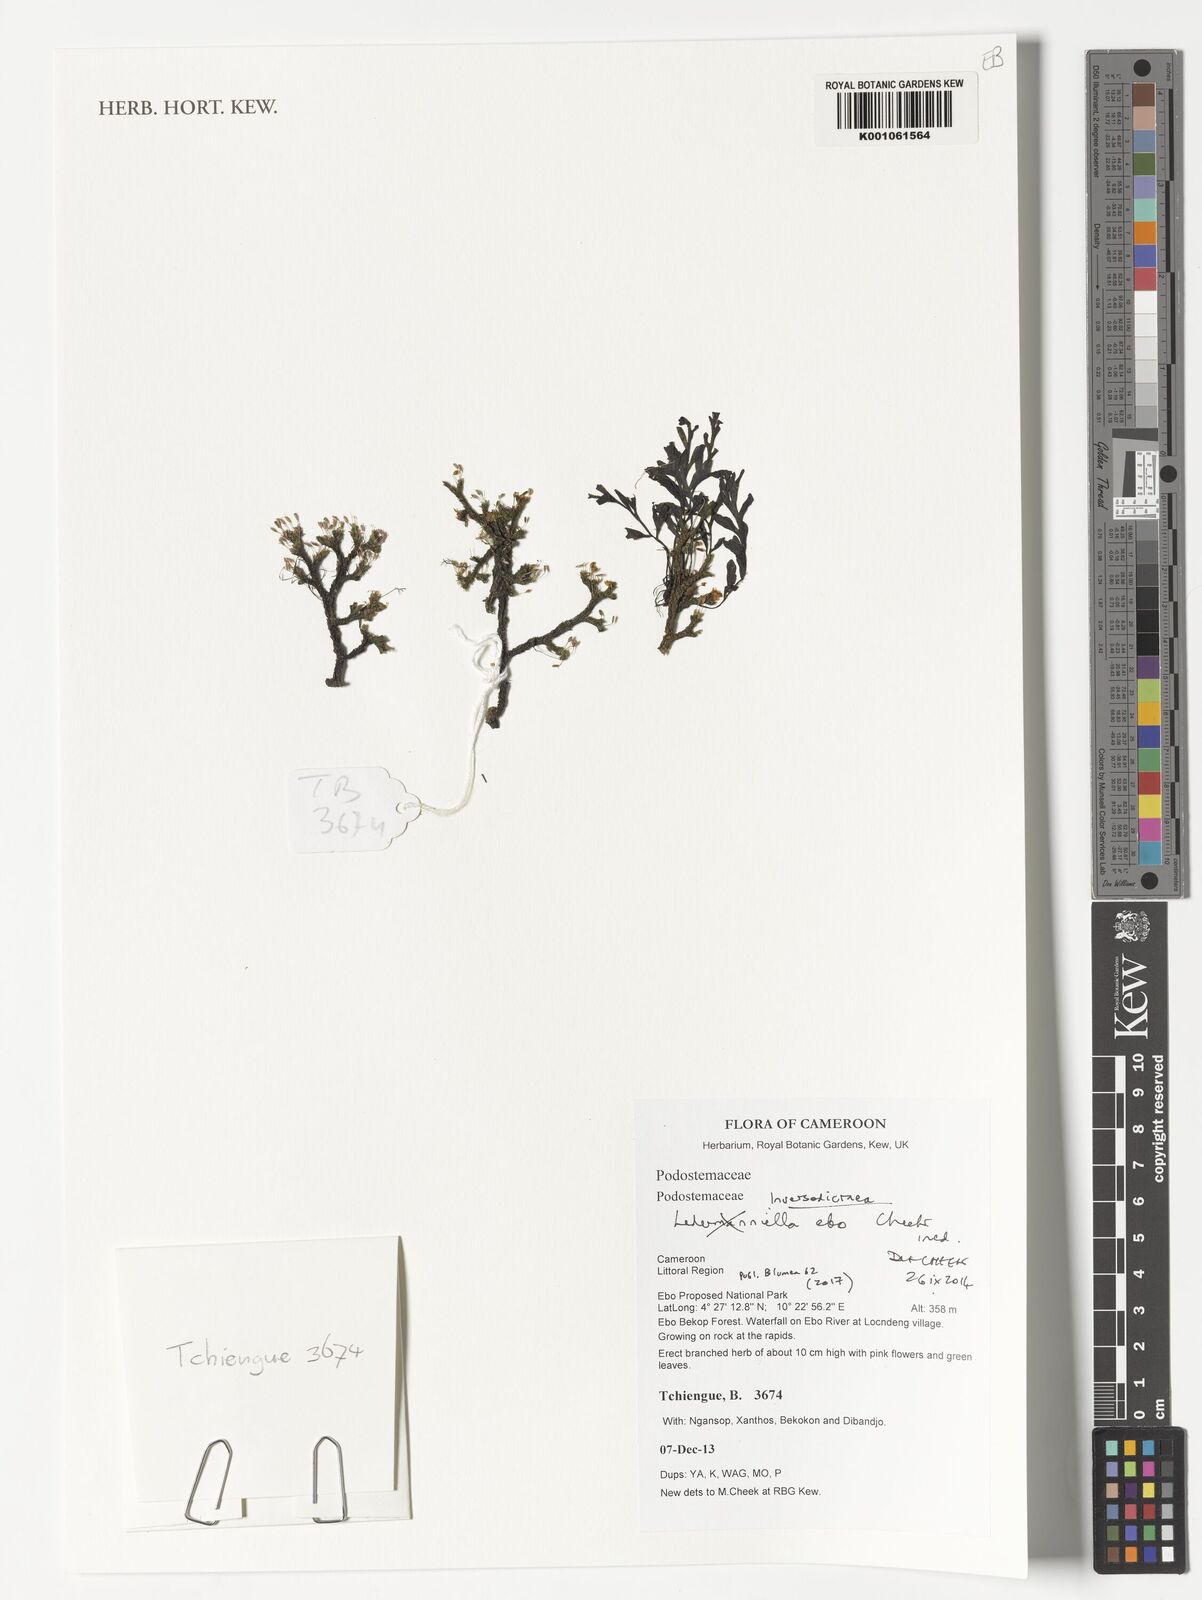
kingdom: Plantae
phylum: Tracheophyta
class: Magnoliopsida
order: Malpighiales
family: Podostemaceae
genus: Inversodicraea
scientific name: Inversodicraea ebo
